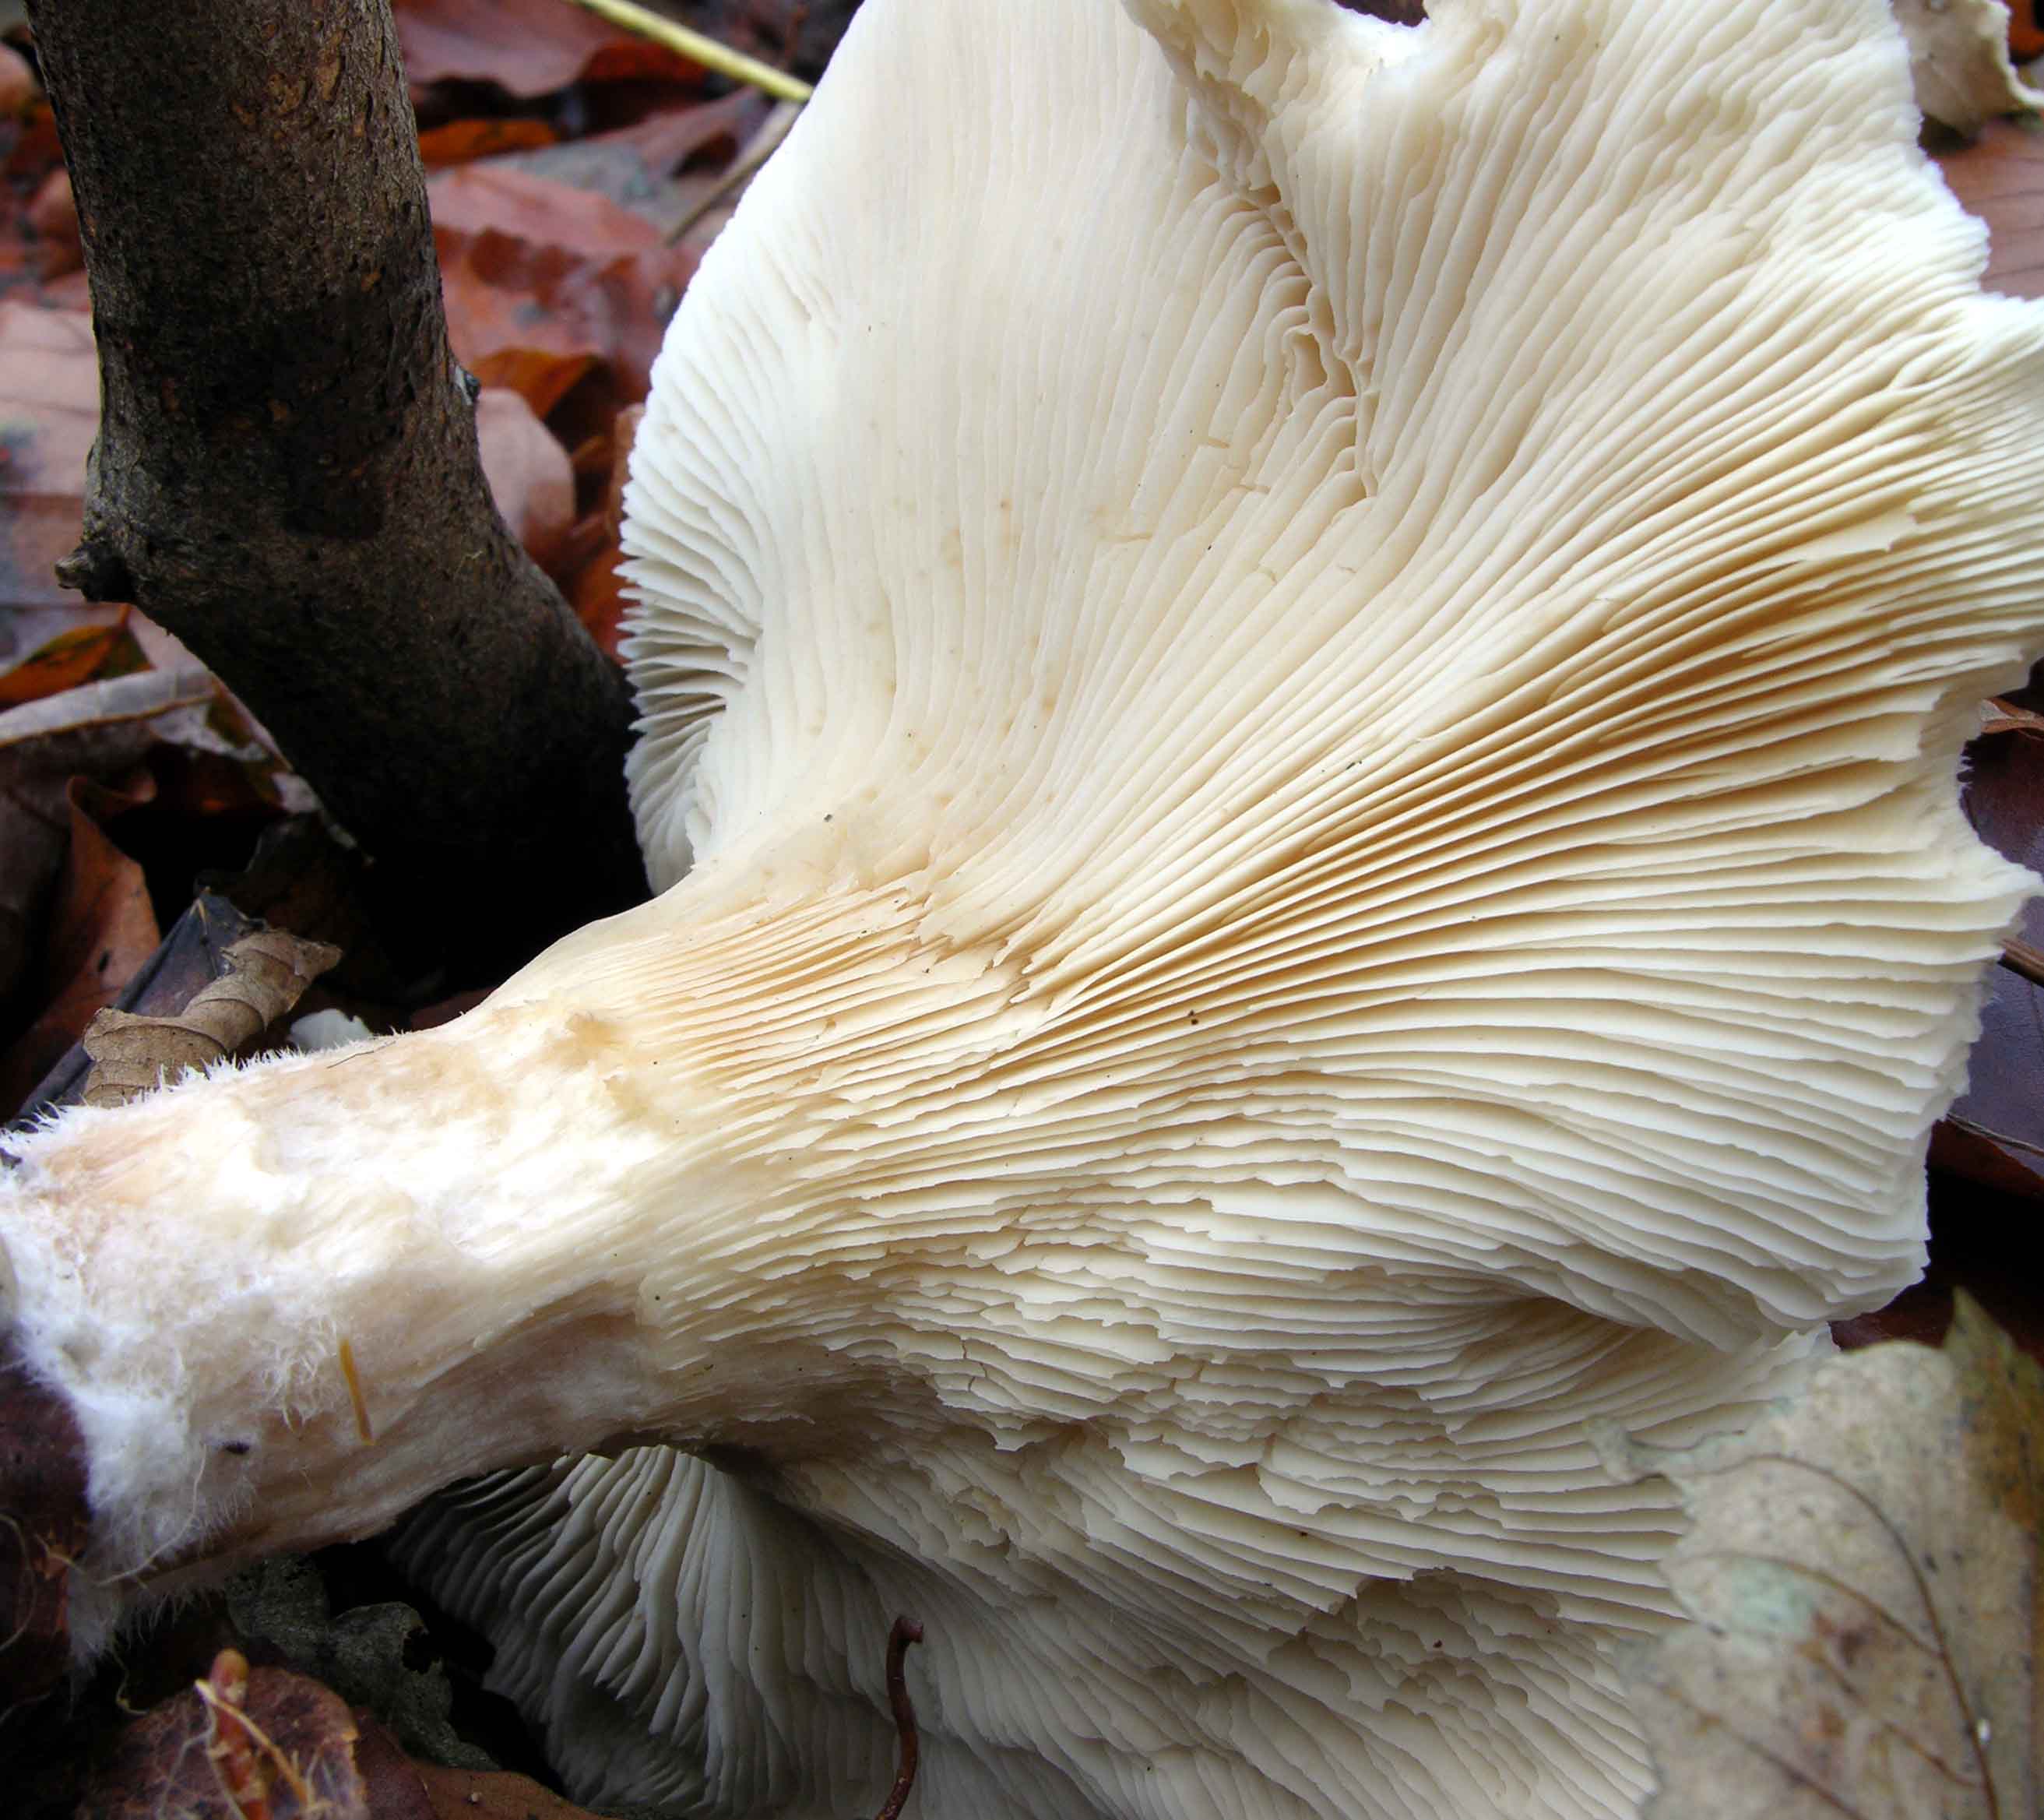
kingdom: Fungi
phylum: Basidiomycota
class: Agaricomycetes
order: Agaricales
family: Tricholomataceae
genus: Clitocybe
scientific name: Clitocybe nebularis
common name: tåge-tragthat
